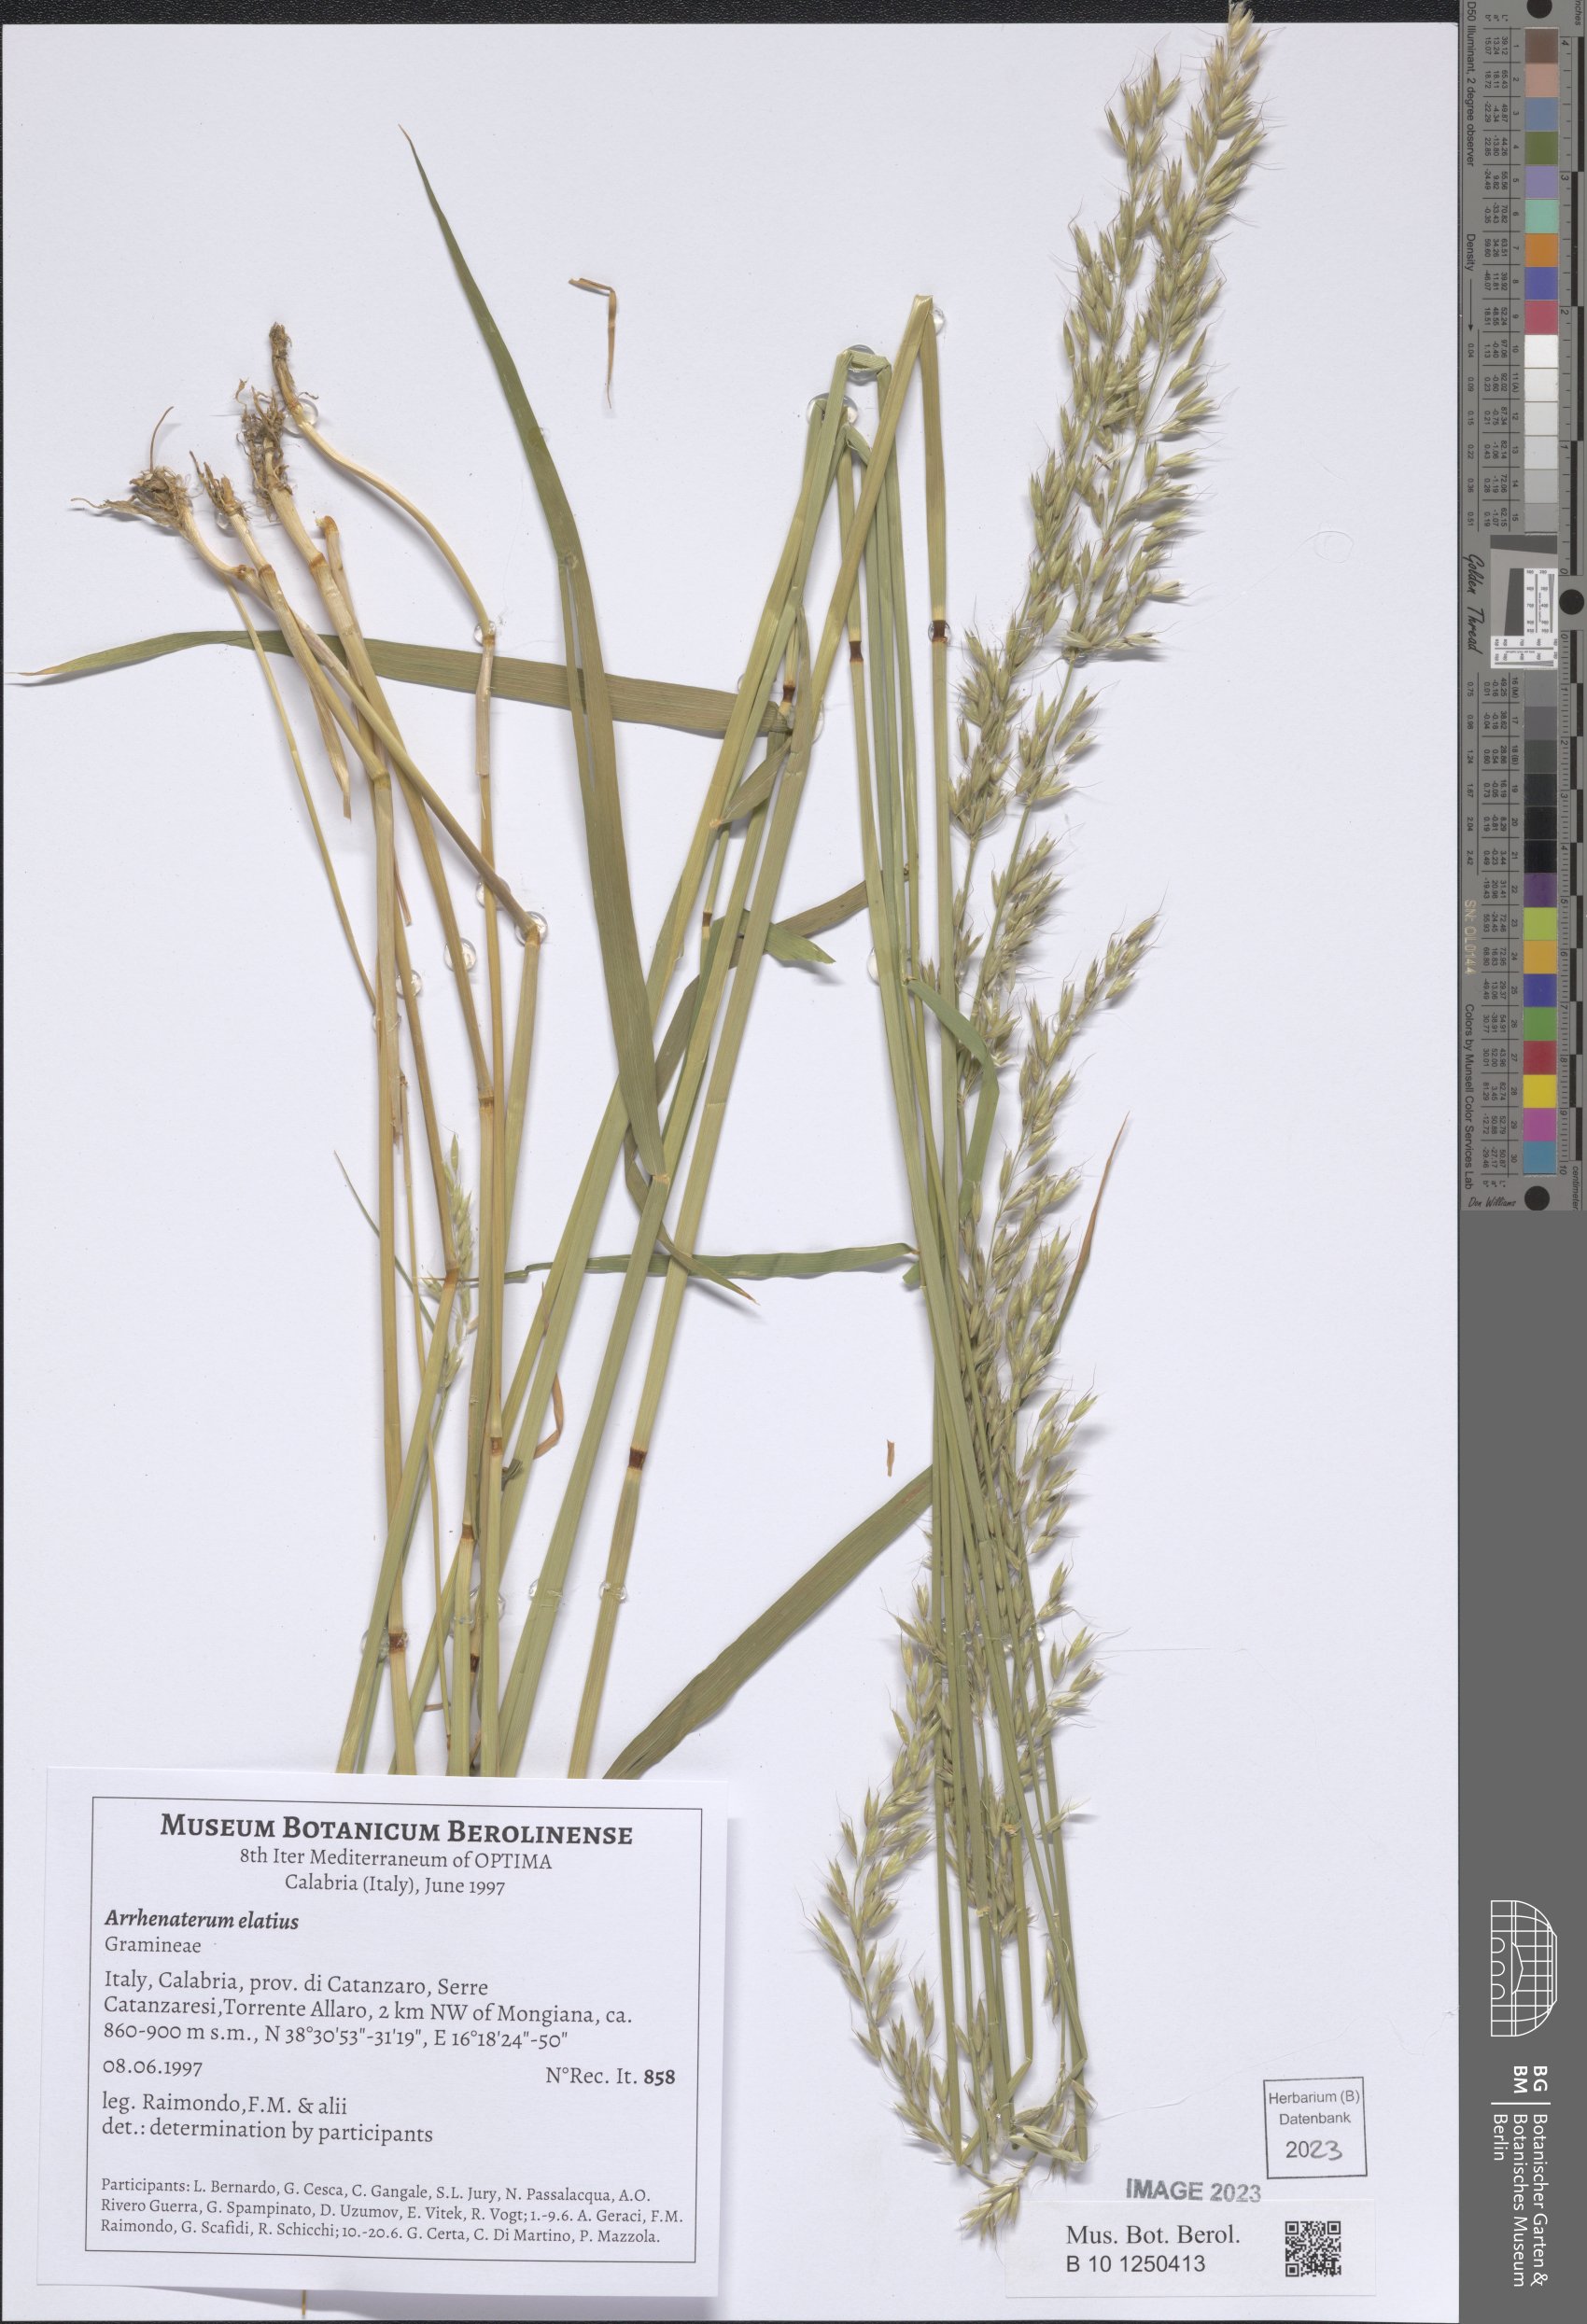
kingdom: Plantae
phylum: Tracheophyta
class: Liliopsida
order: Poales
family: Poaceae
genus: Arrhenatherum
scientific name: Arrhenatherum elatius
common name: Tall oatgrass
